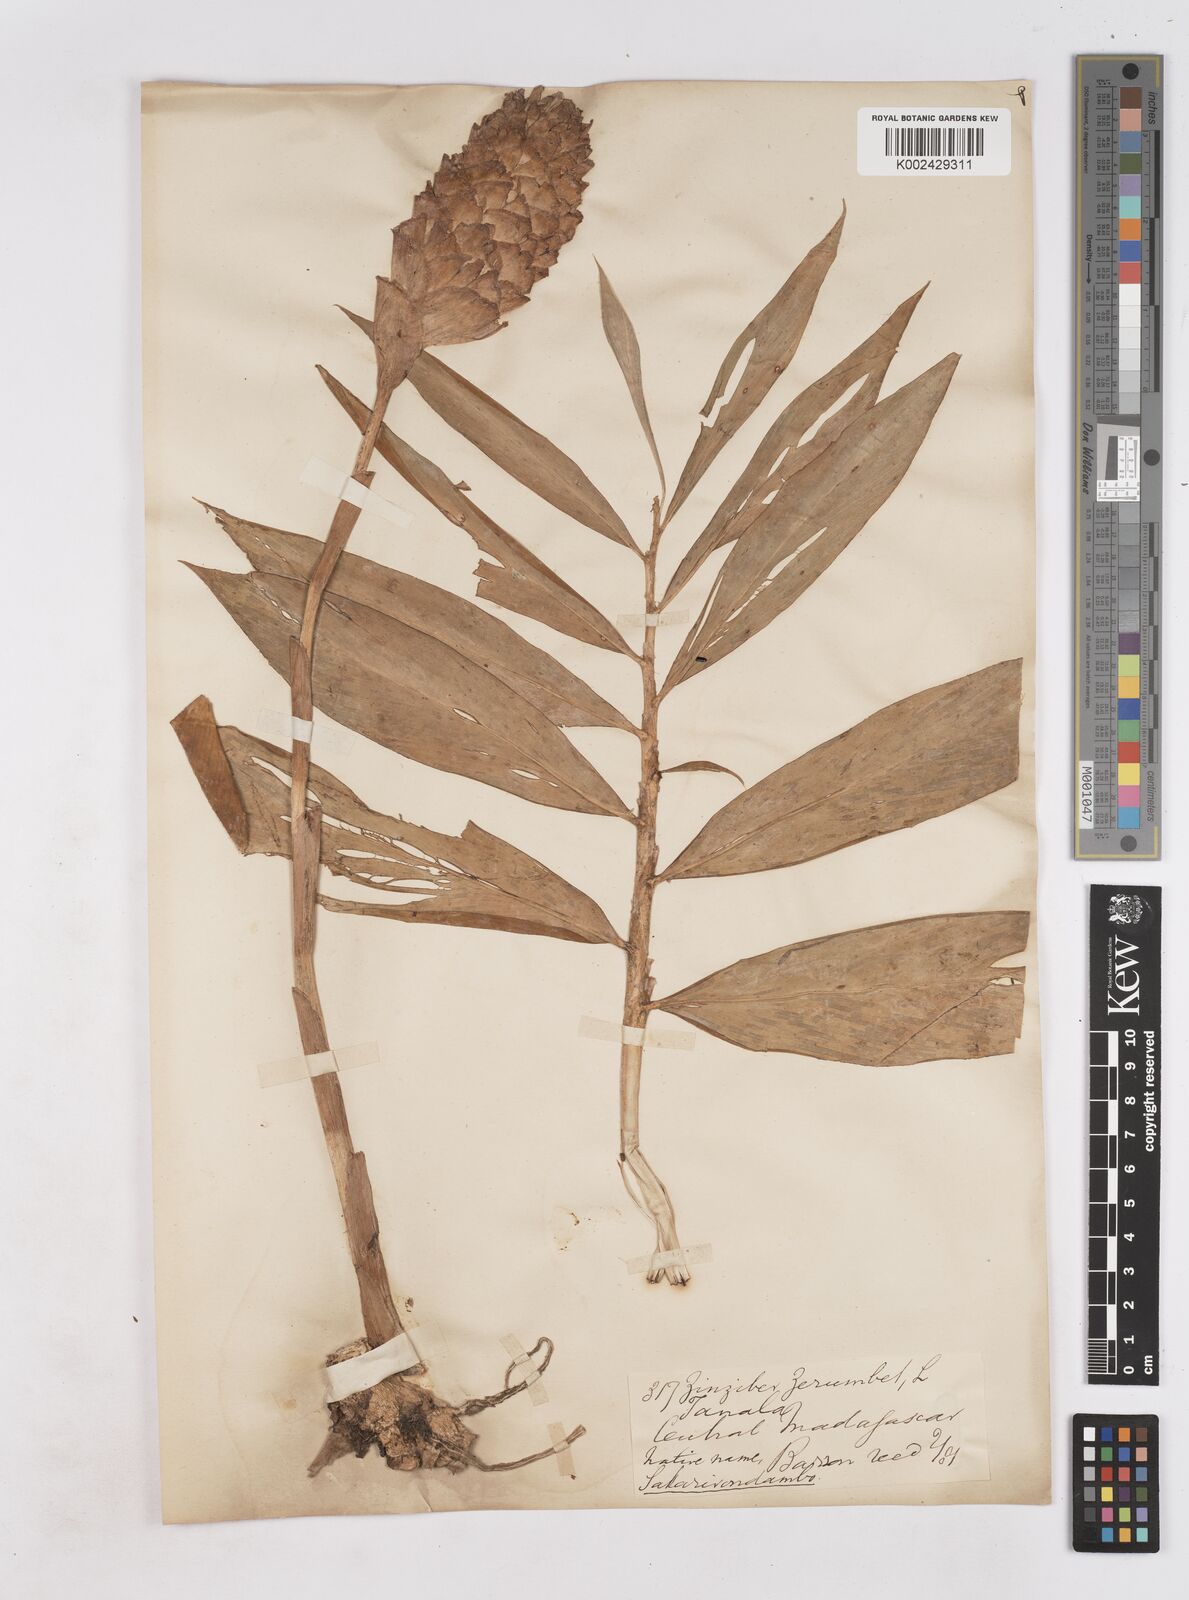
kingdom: Plantae
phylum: Tracheophyta
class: Liliopsida
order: Zingiberales
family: Zingiberaceae
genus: Zingiber
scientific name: Zingiber zerumbet
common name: Bitter ginger
